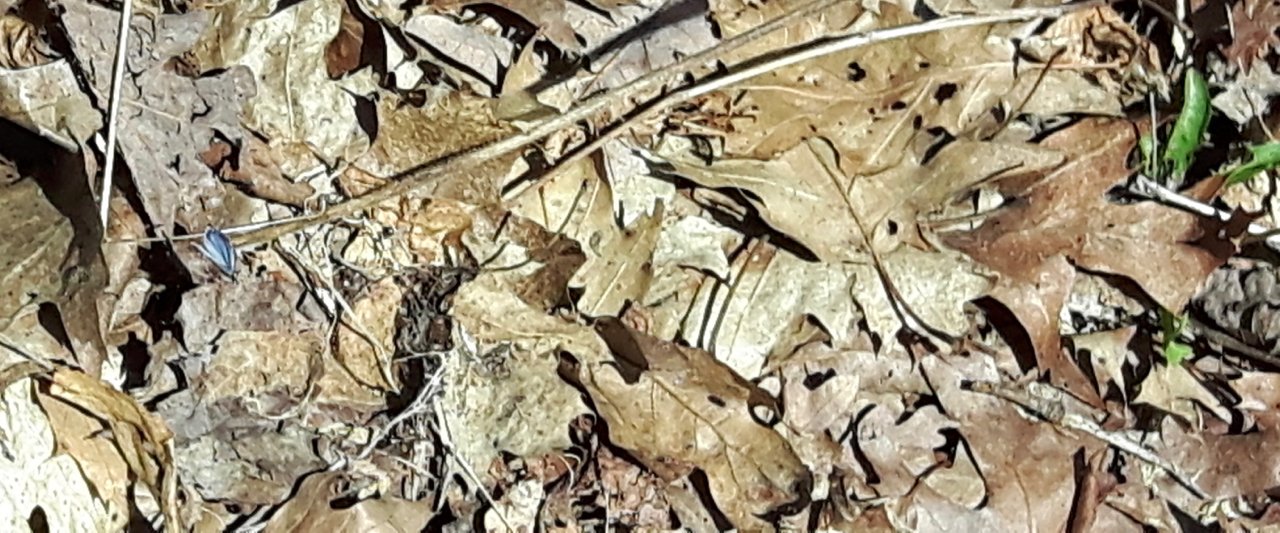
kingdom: Animalia
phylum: Arthropoda
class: Insecta
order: Lepidoptera
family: Lycaenidae
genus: Celastrina
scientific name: Celastrina
